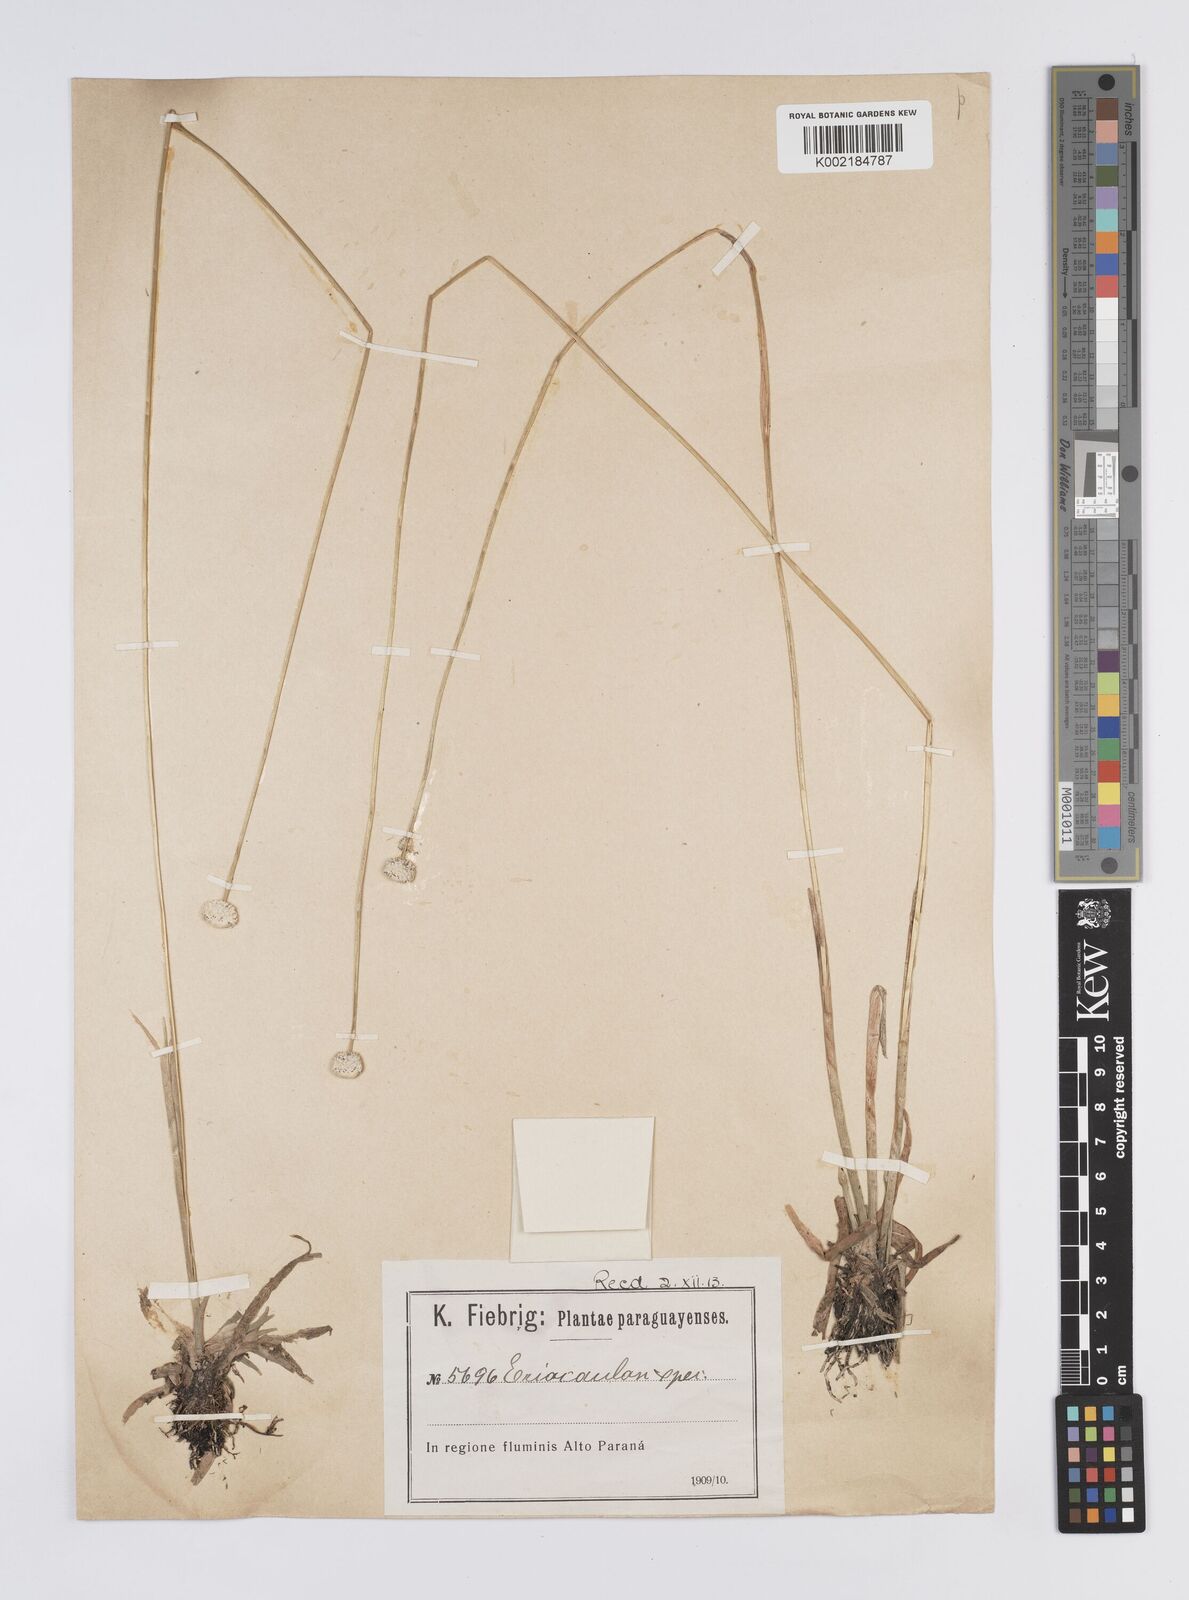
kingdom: Plantae
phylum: Tracheophyta
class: Liliopsida
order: Poales
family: Eriocaulaceae
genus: Eriocaulon
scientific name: Eriocaulon sellowianum
